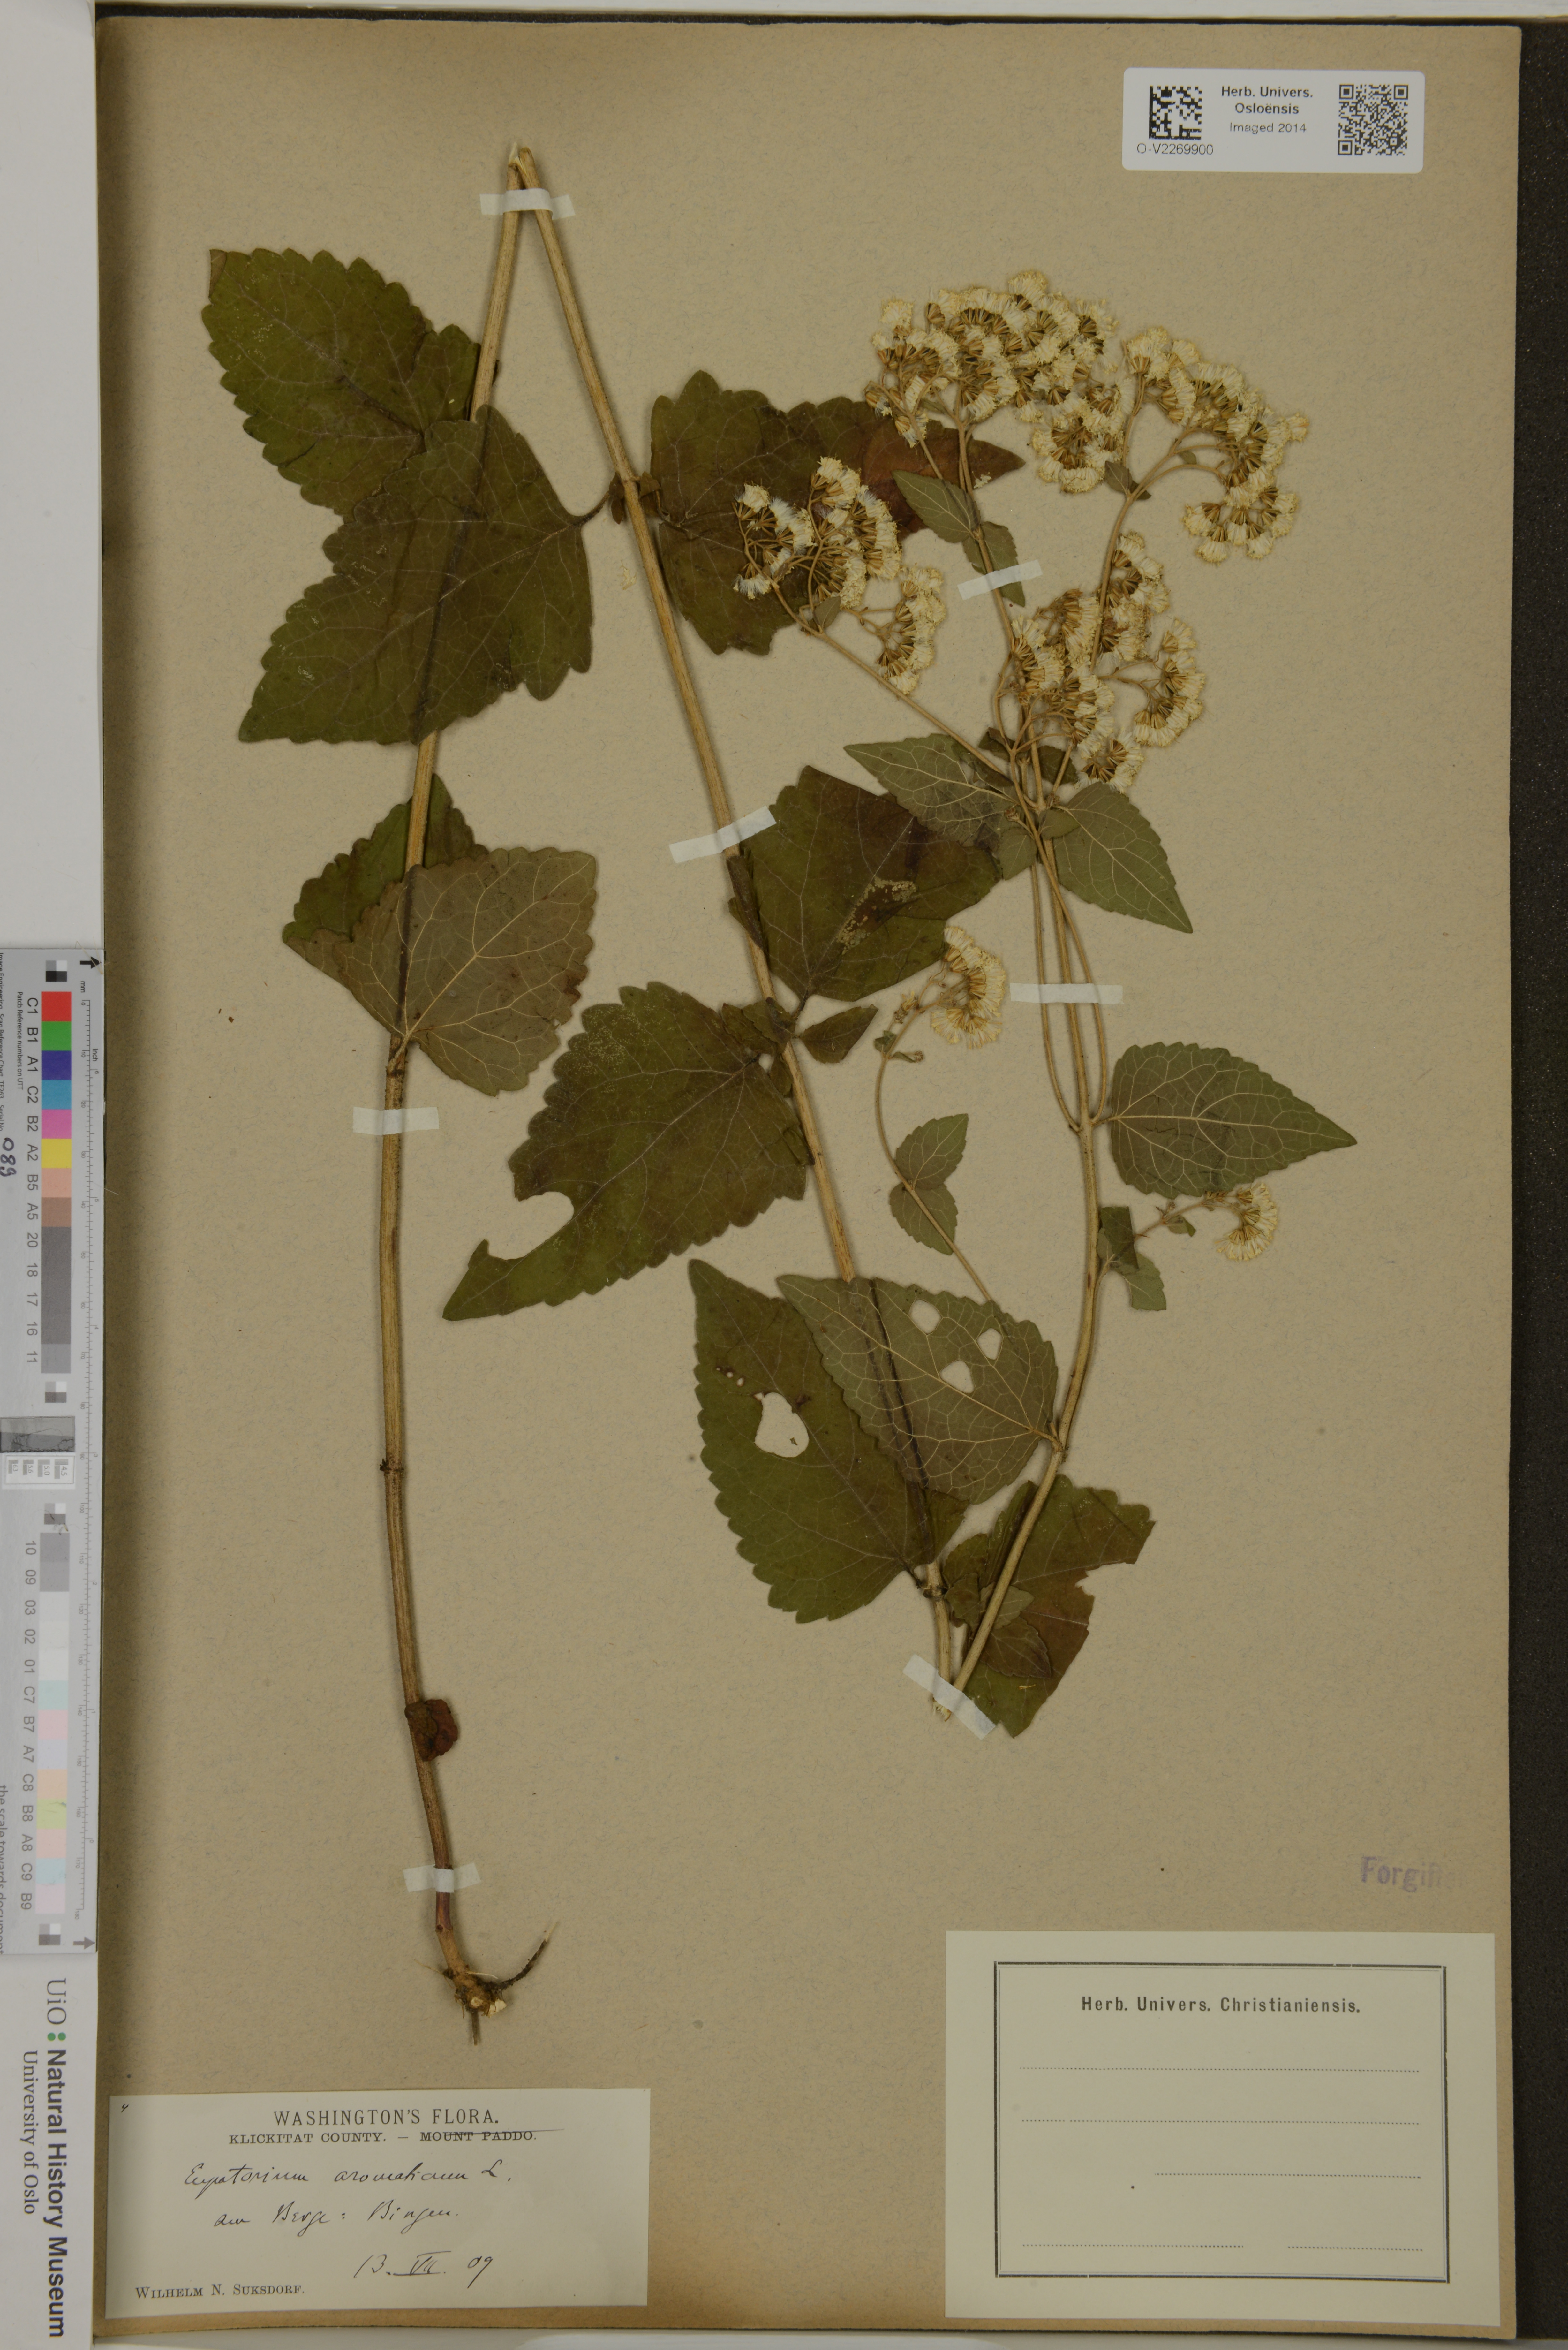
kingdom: Plantae
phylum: Tracheophyta
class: Magnoliopsida
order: Asterales
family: Asteraceae
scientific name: Asteraceae
